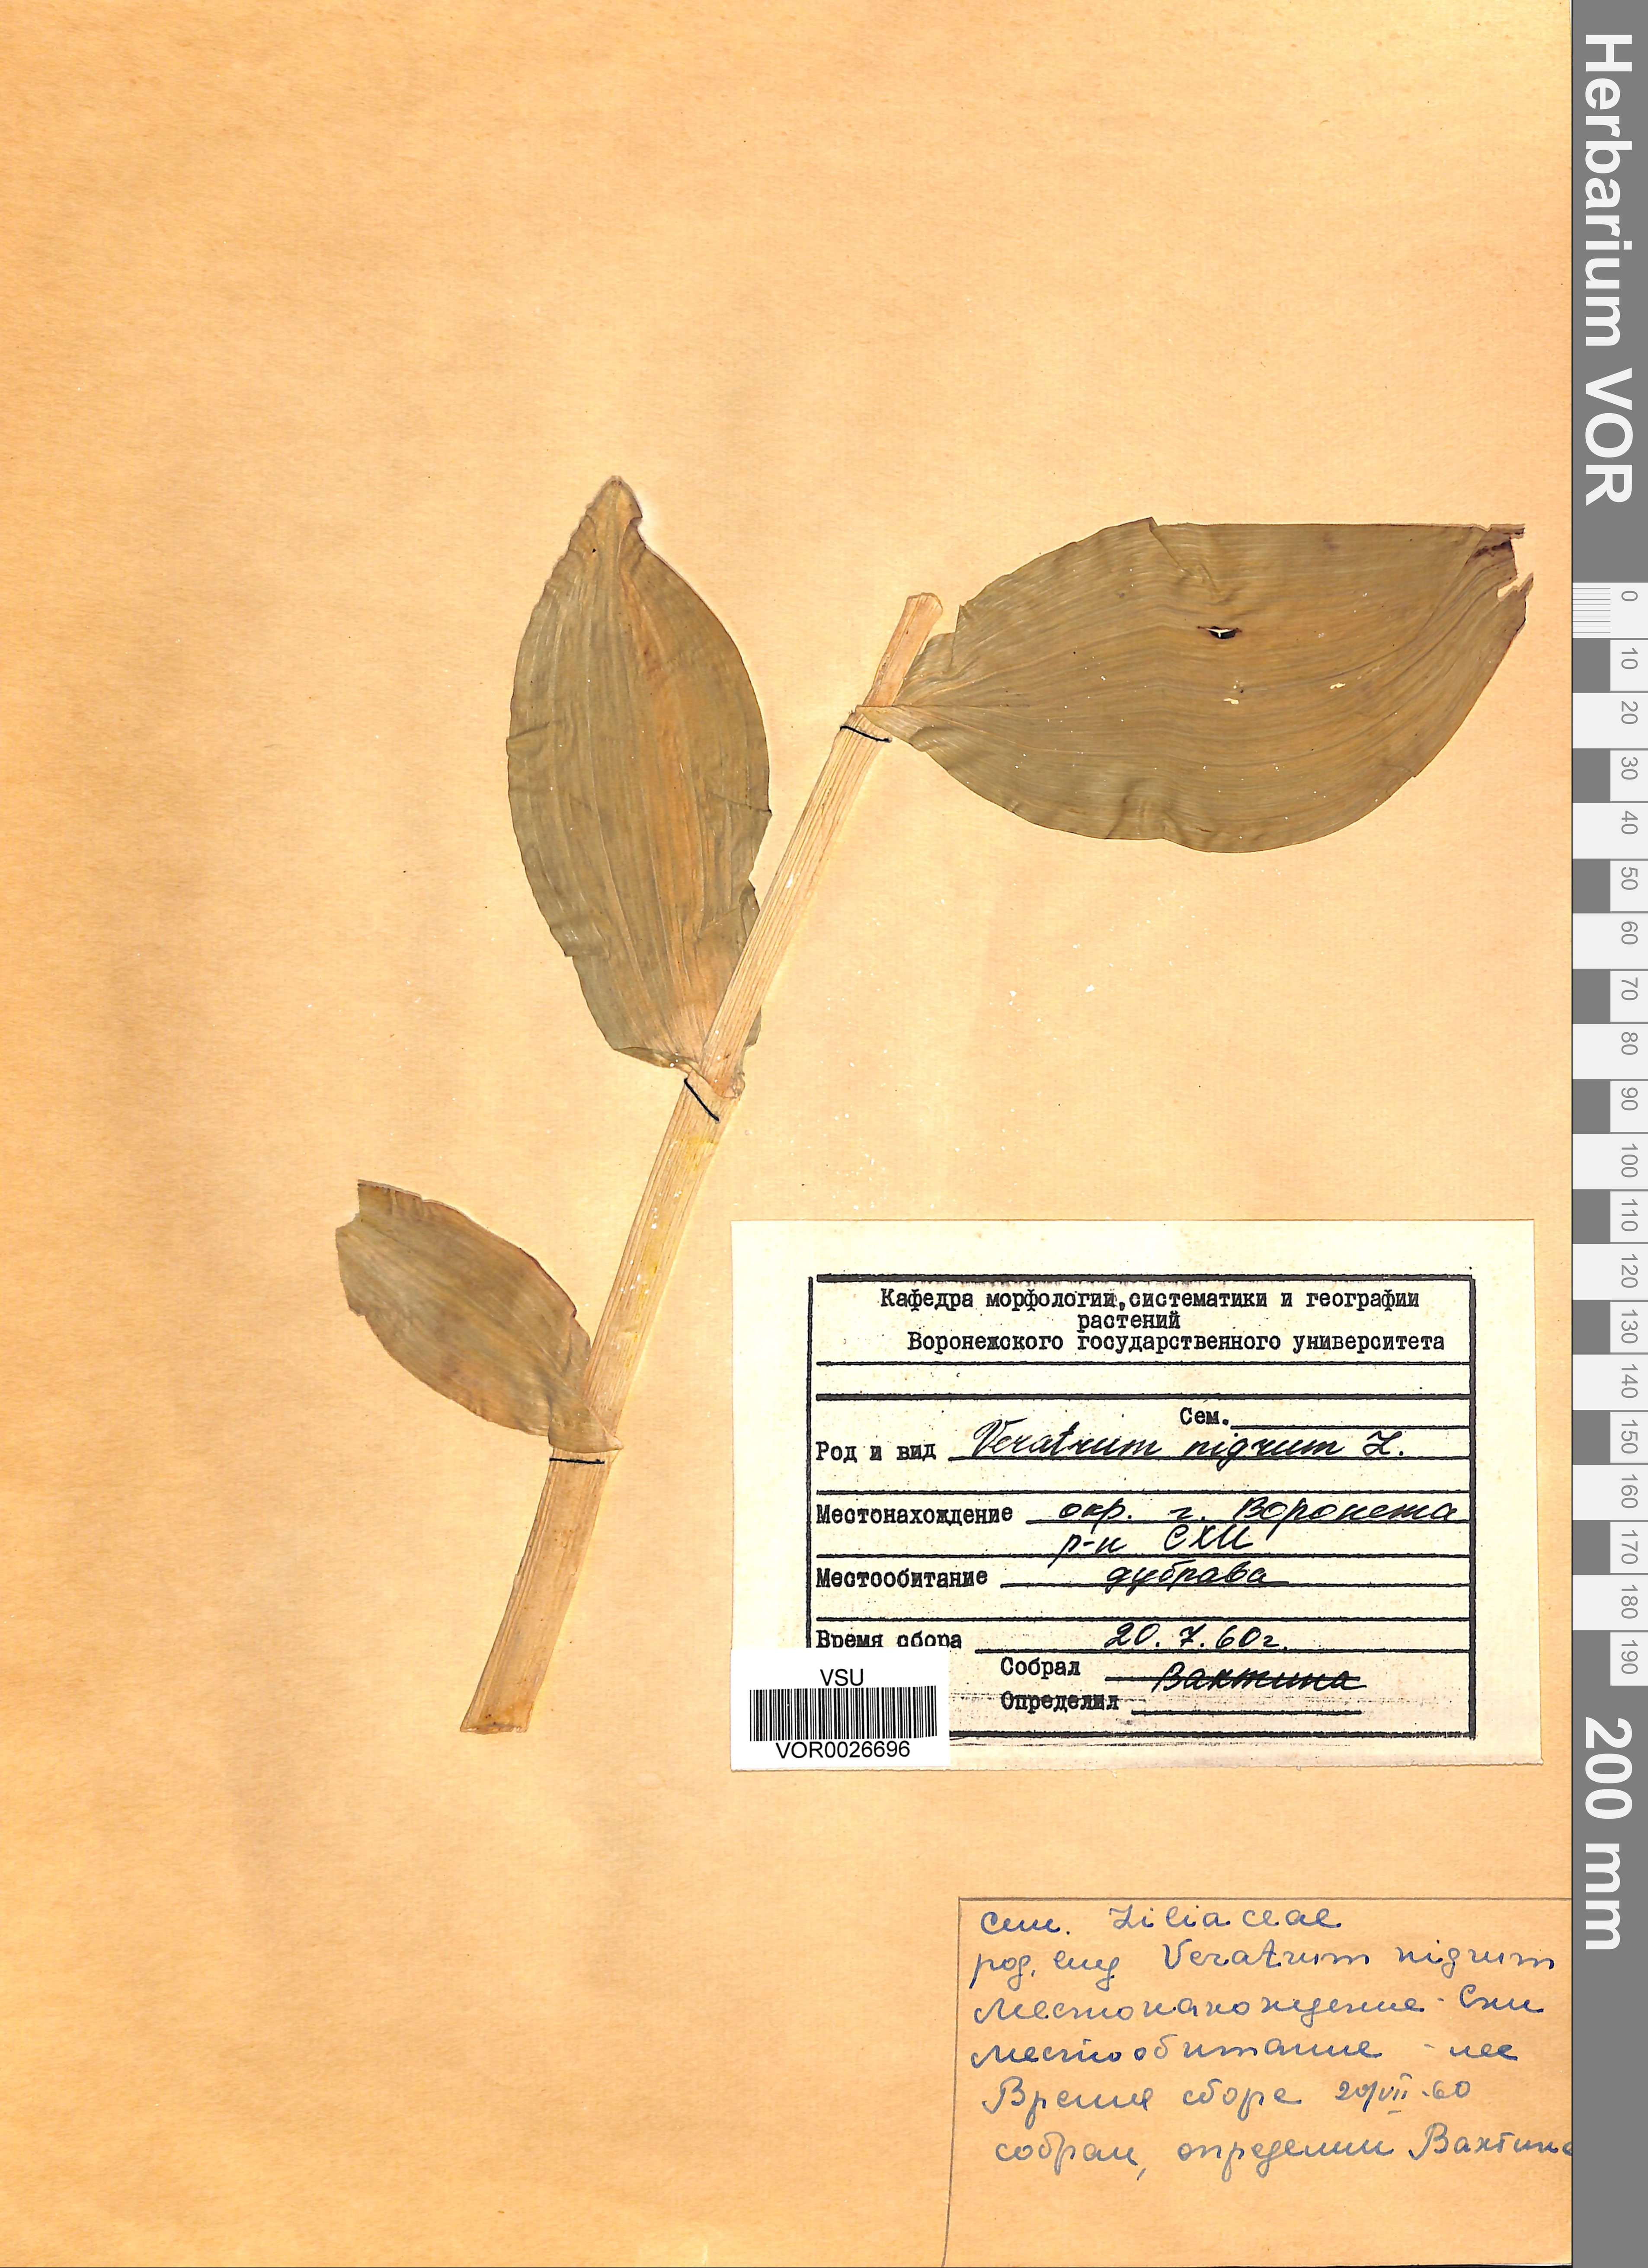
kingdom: Plantae
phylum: Tracheophyta
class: Liliopsida
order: Liliales
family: Melanthiaceae
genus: Veratrum
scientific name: Veratrum nigrum
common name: Black veratrum
